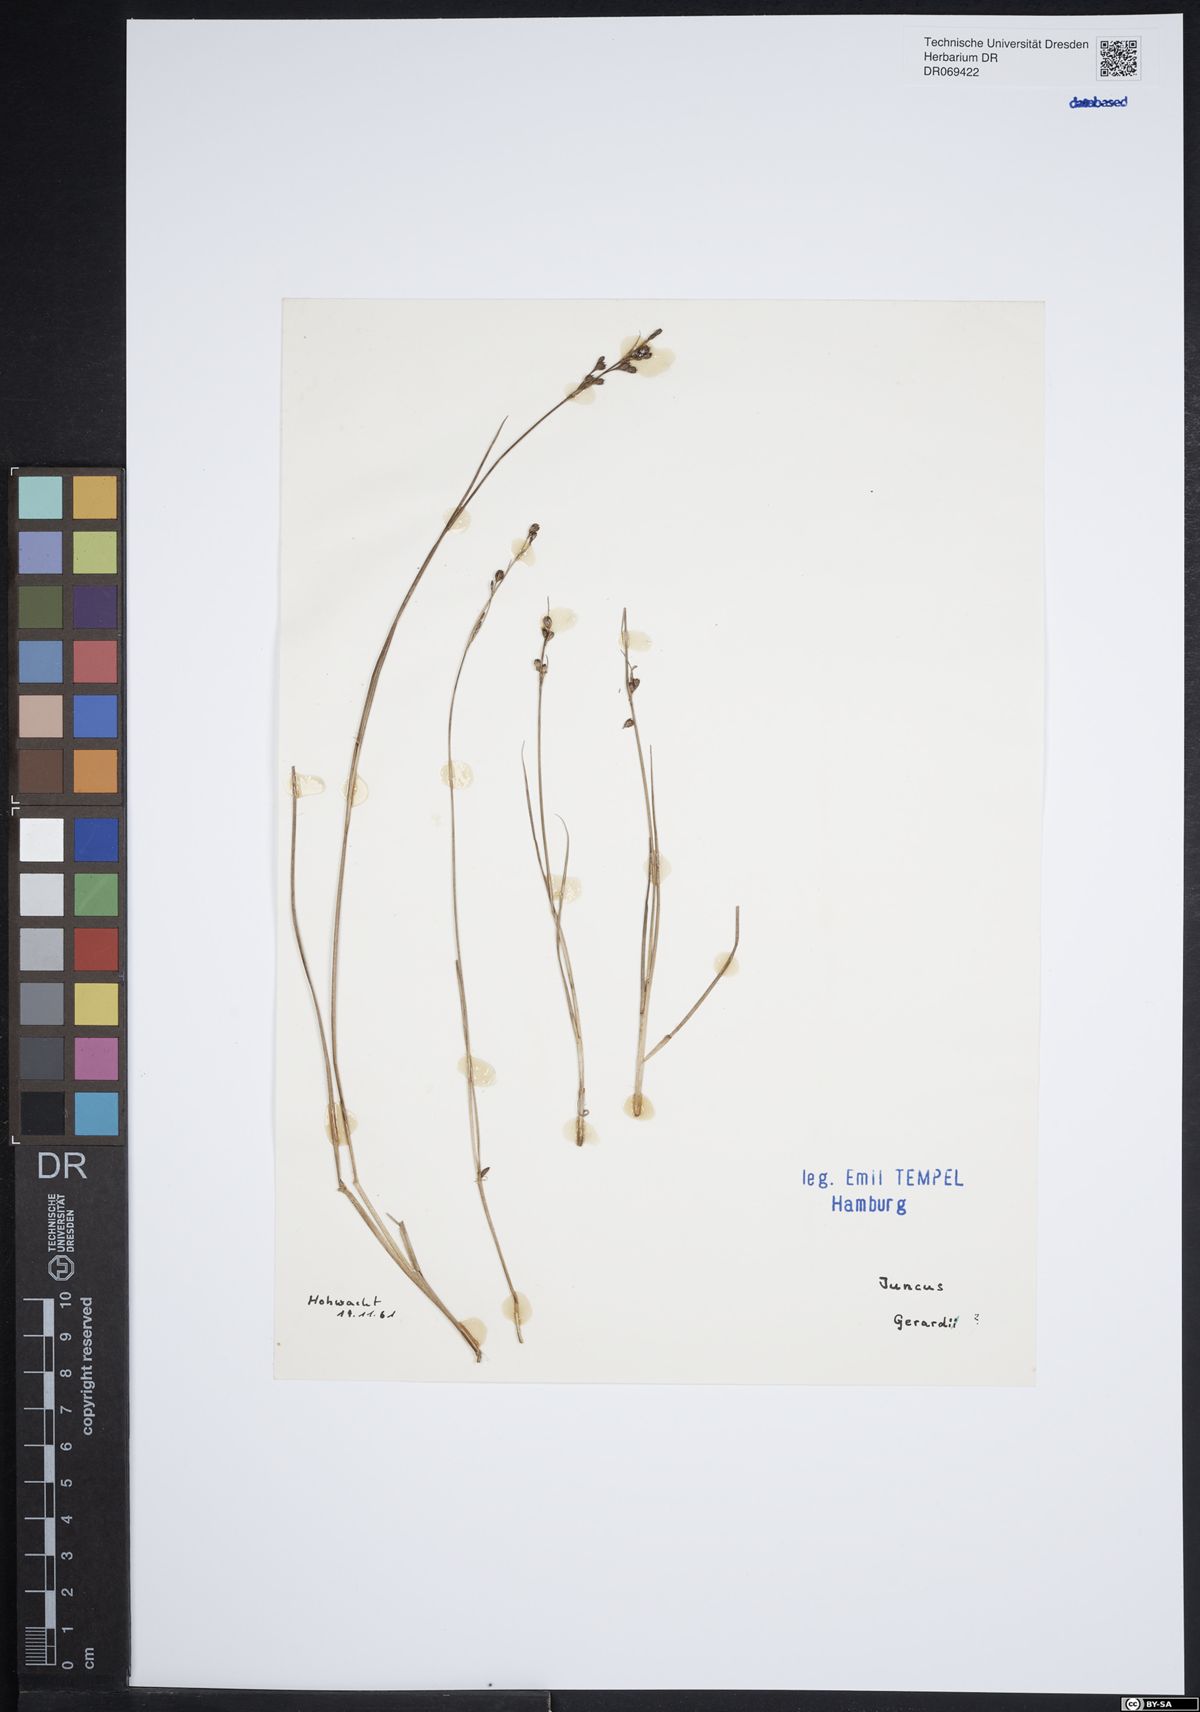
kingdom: Plantae
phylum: Tracheophyta
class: Liliopsida
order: Poales
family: Juncaceae
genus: Juncus
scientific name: Juncus gerardi
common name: Saltmarsh rush
